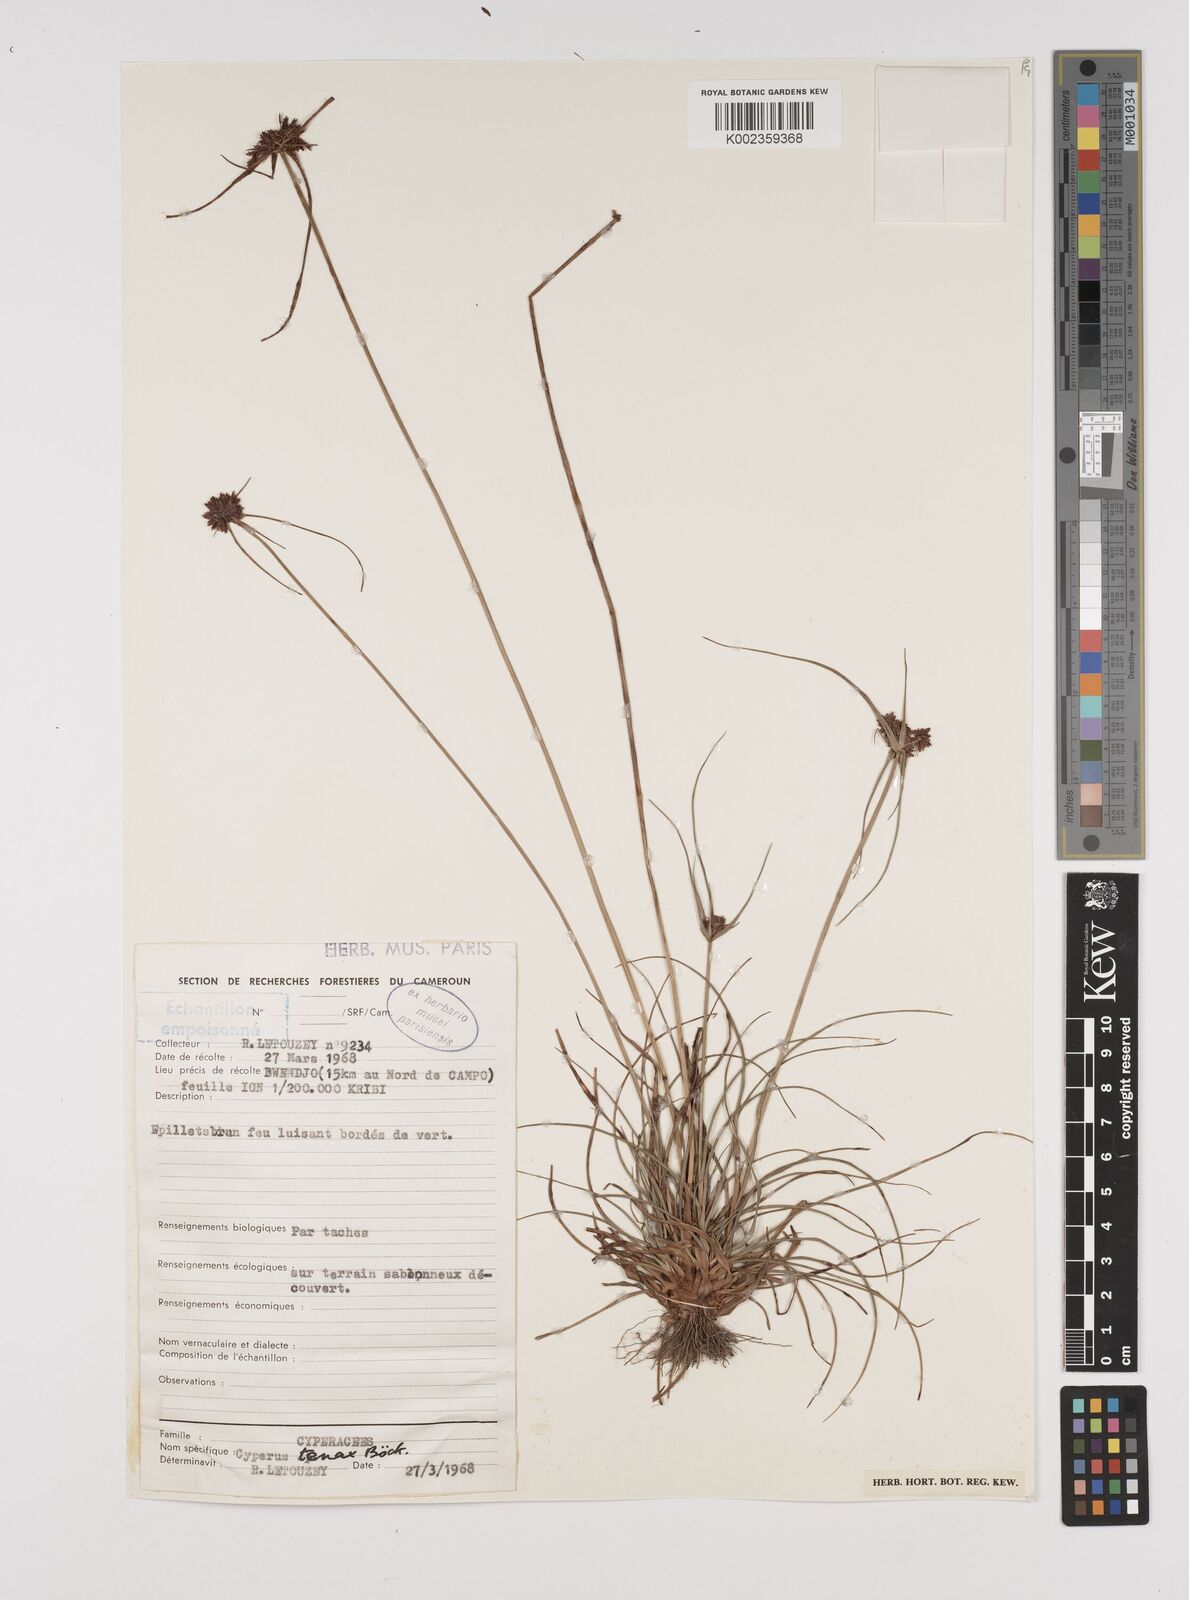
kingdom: Plantae
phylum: Tracheophyta
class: Liliopsida
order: Poales
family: Cyperaceae
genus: Cyperus
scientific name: Cyperus tenax
